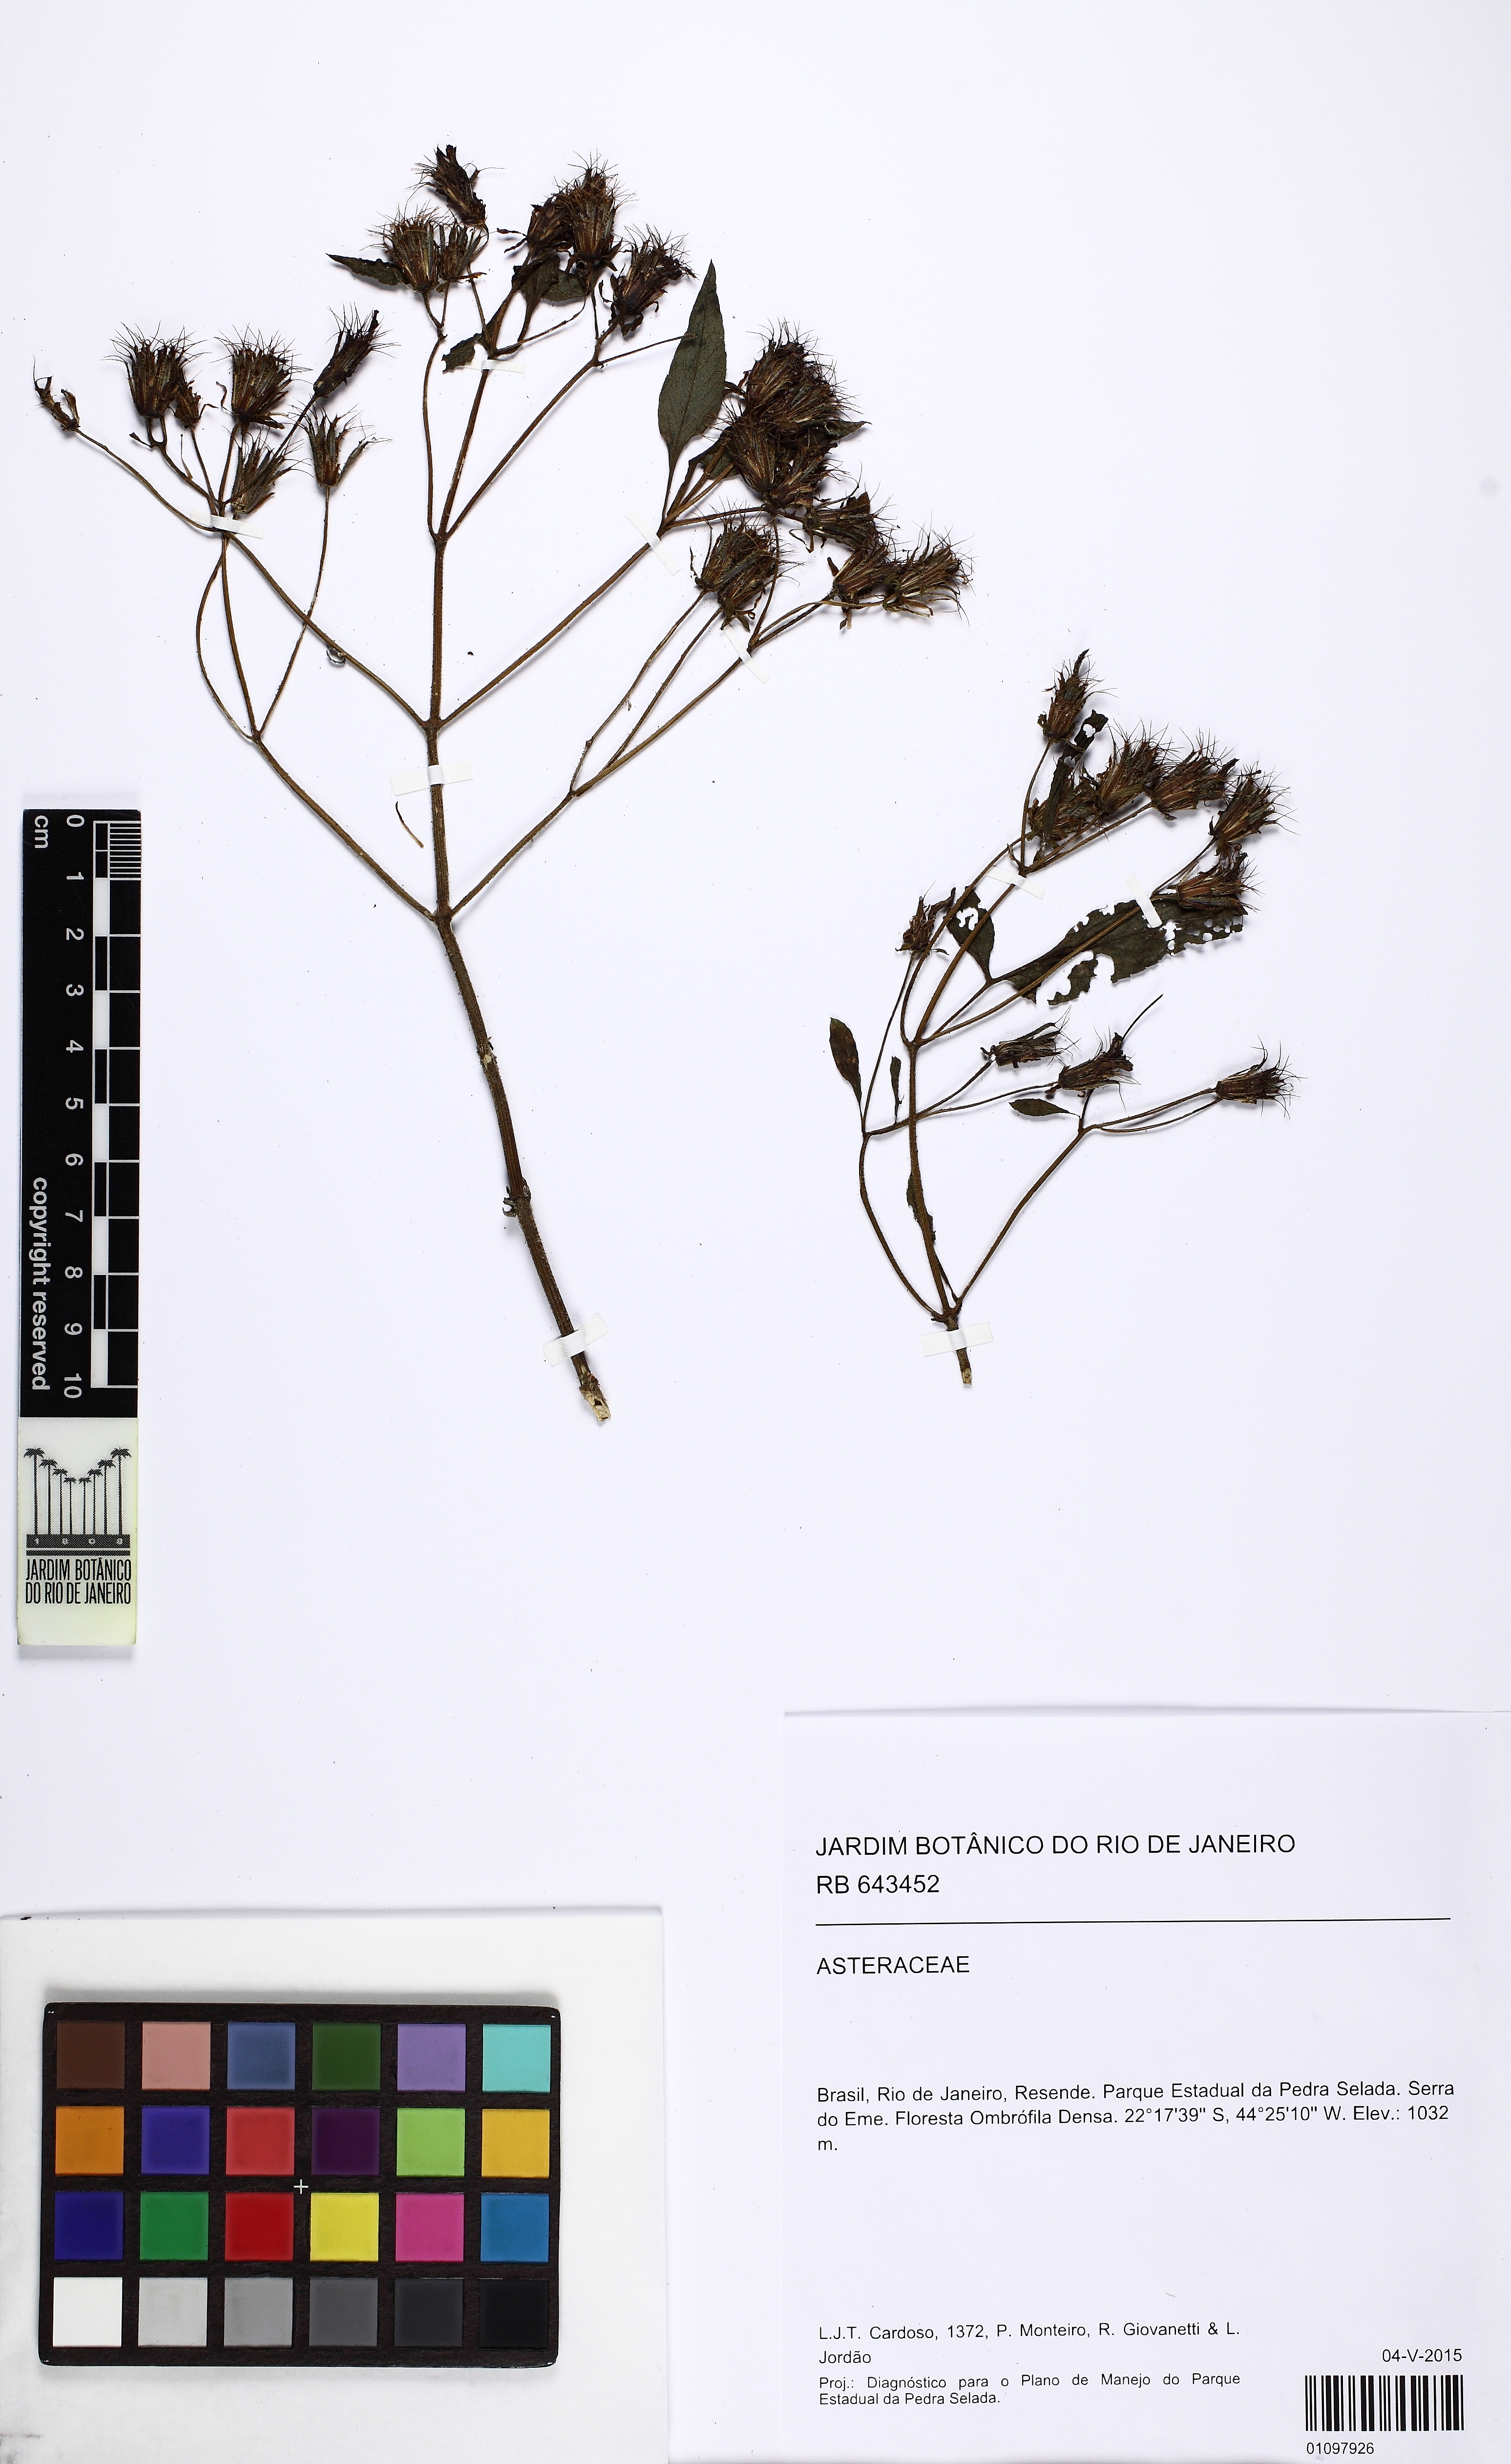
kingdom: Plantae
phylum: Tracheophyta
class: Magnoliopsida
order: Asterales
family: Asteraceae
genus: Bidens
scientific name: Bidens
